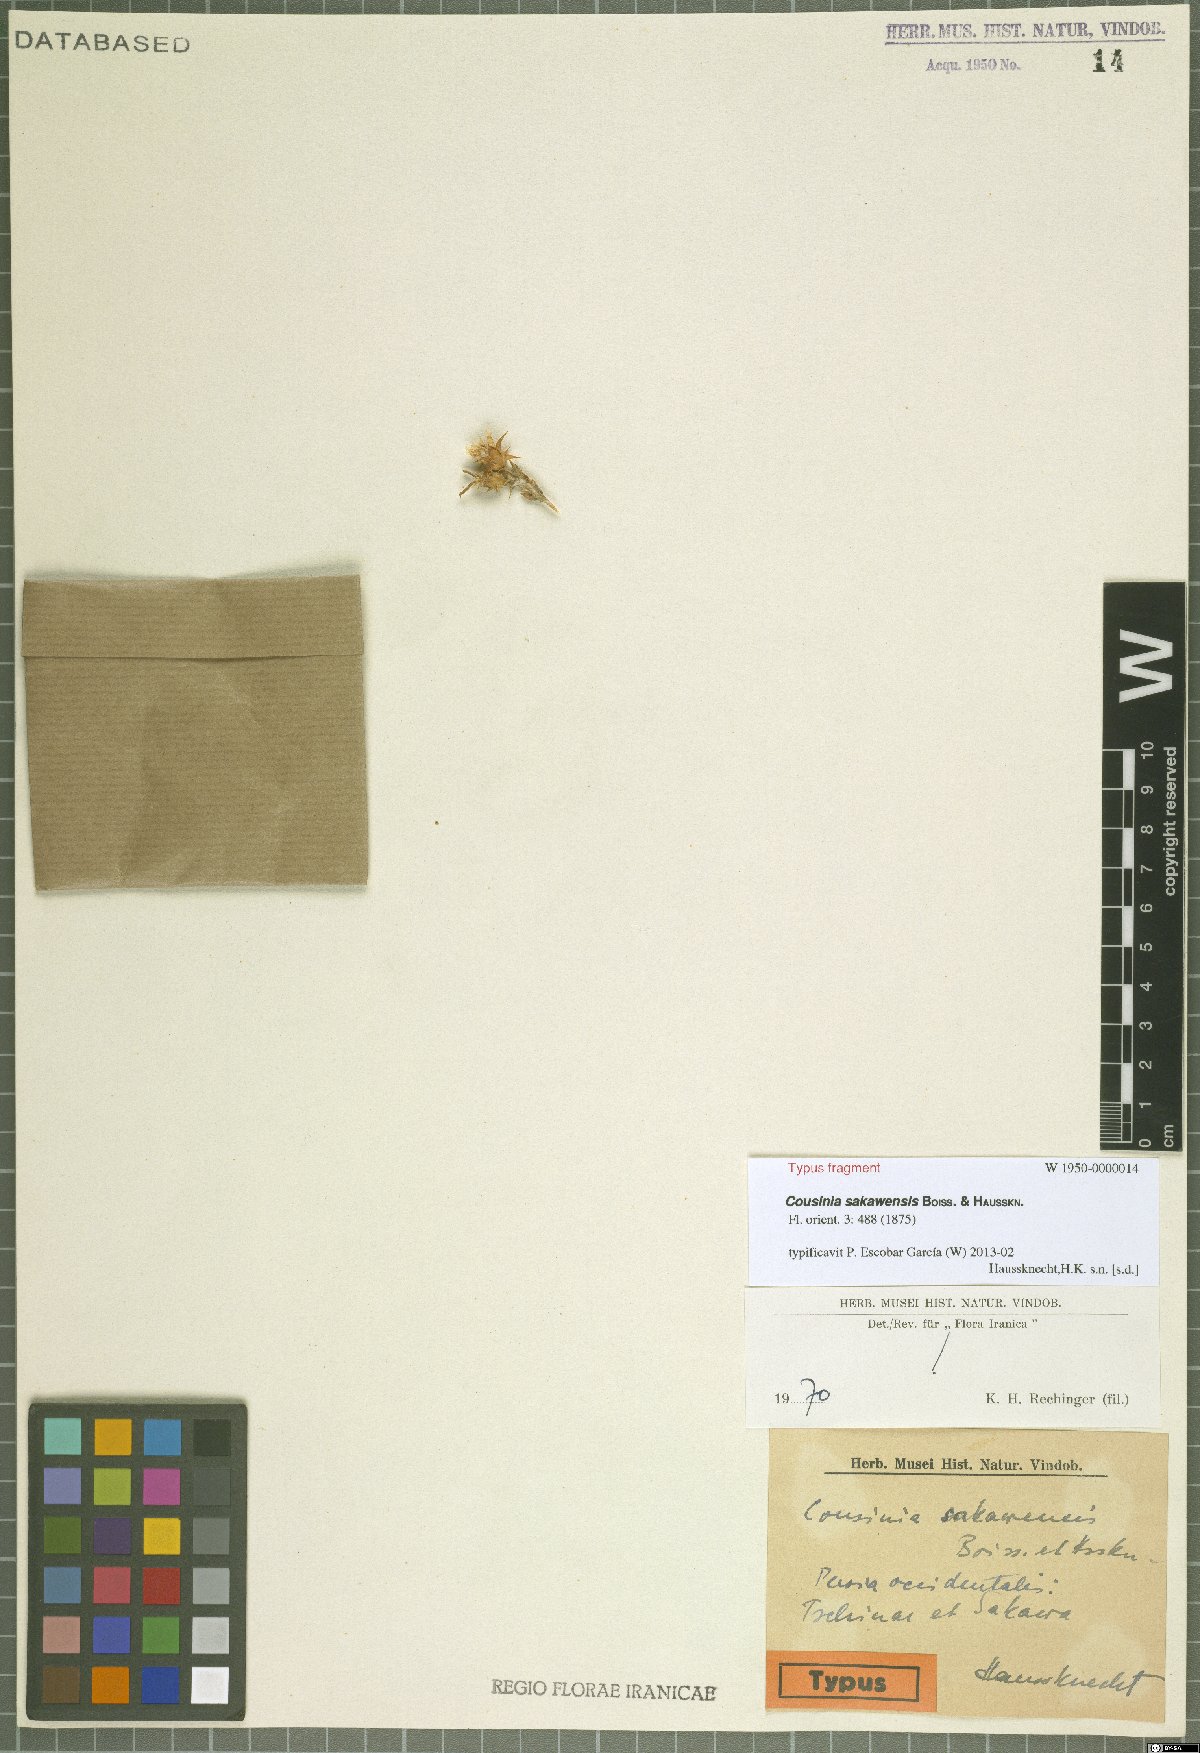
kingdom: Plantae
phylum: Tracheophyta
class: Magnoliopsida
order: Asterales
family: Asteraceae
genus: Cousinia
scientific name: Cousinia sakawensis
